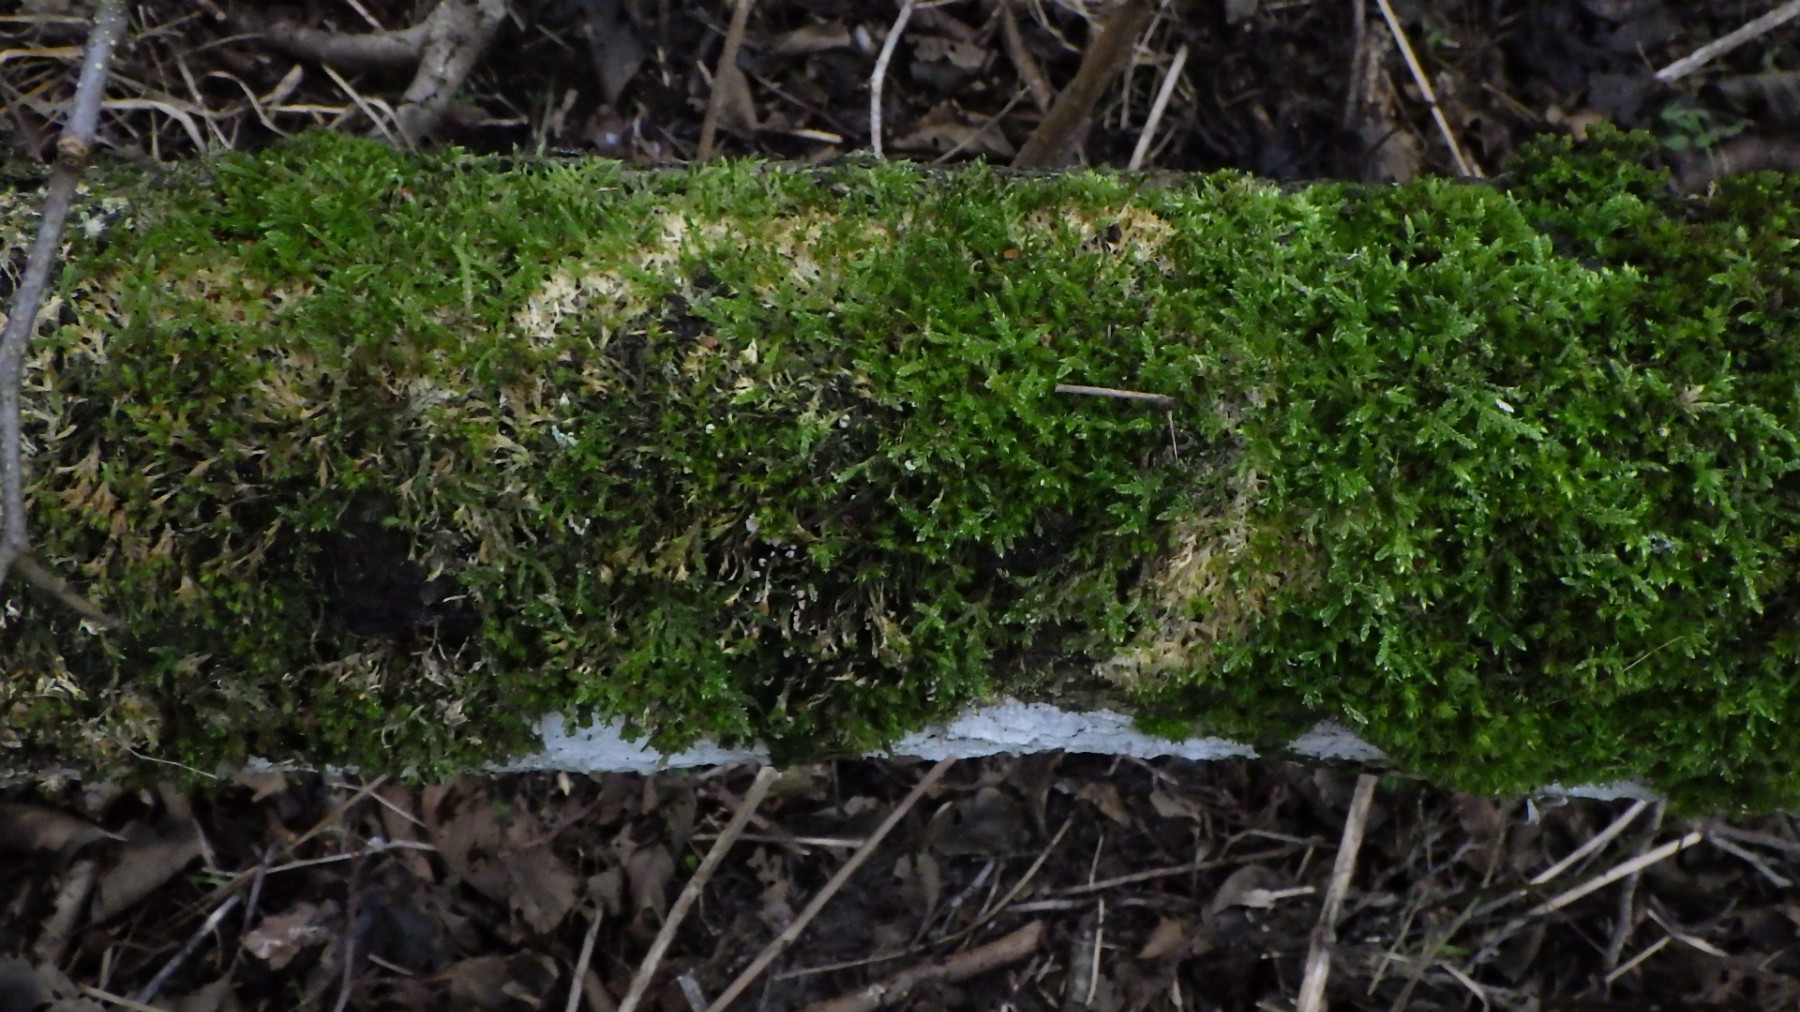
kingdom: Fungi
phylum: Basidiomycota
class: Agaricomycetes
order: Agaricales
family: Chromocyphellaceae
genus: Chromocyphella
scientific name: Chromocyphella muscicola
